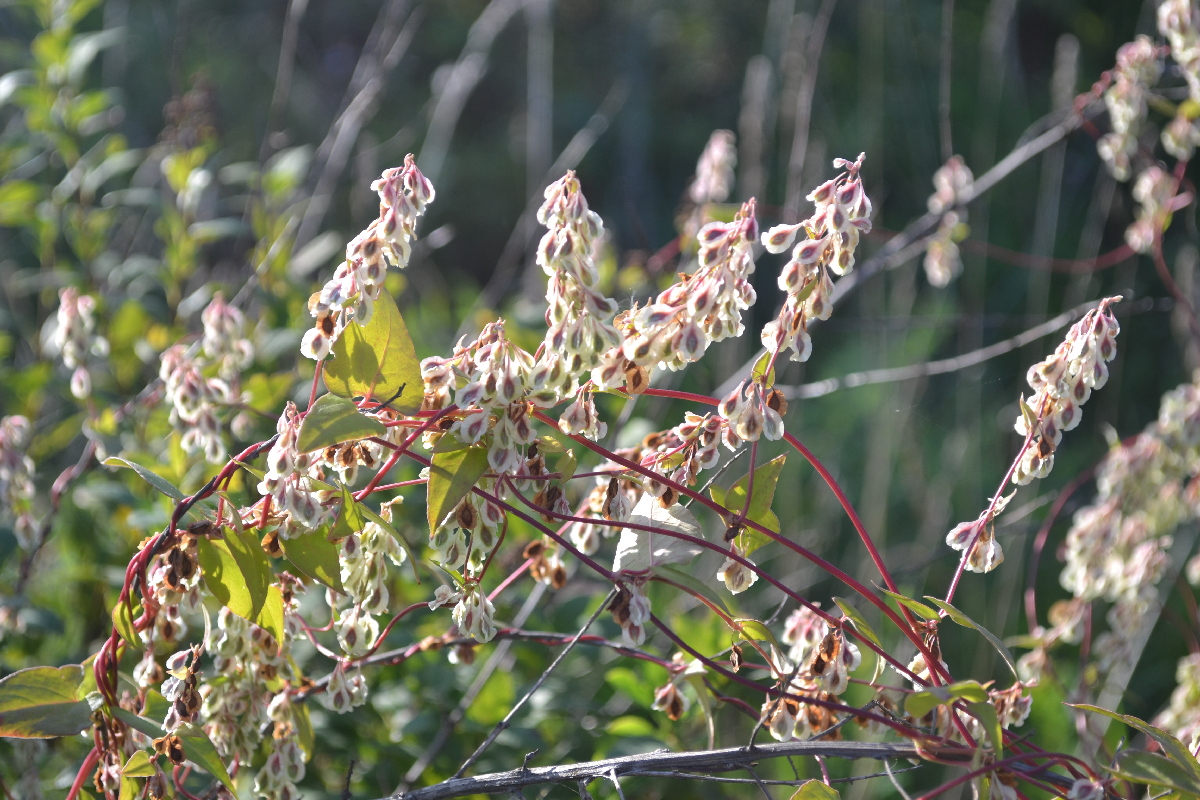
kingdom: Plantae
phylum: Tracheophyta
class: Magnoliopsida
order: Caryophyllales
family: Polygonaceae
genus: Fallopia
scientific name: Fallopia convolvulus
